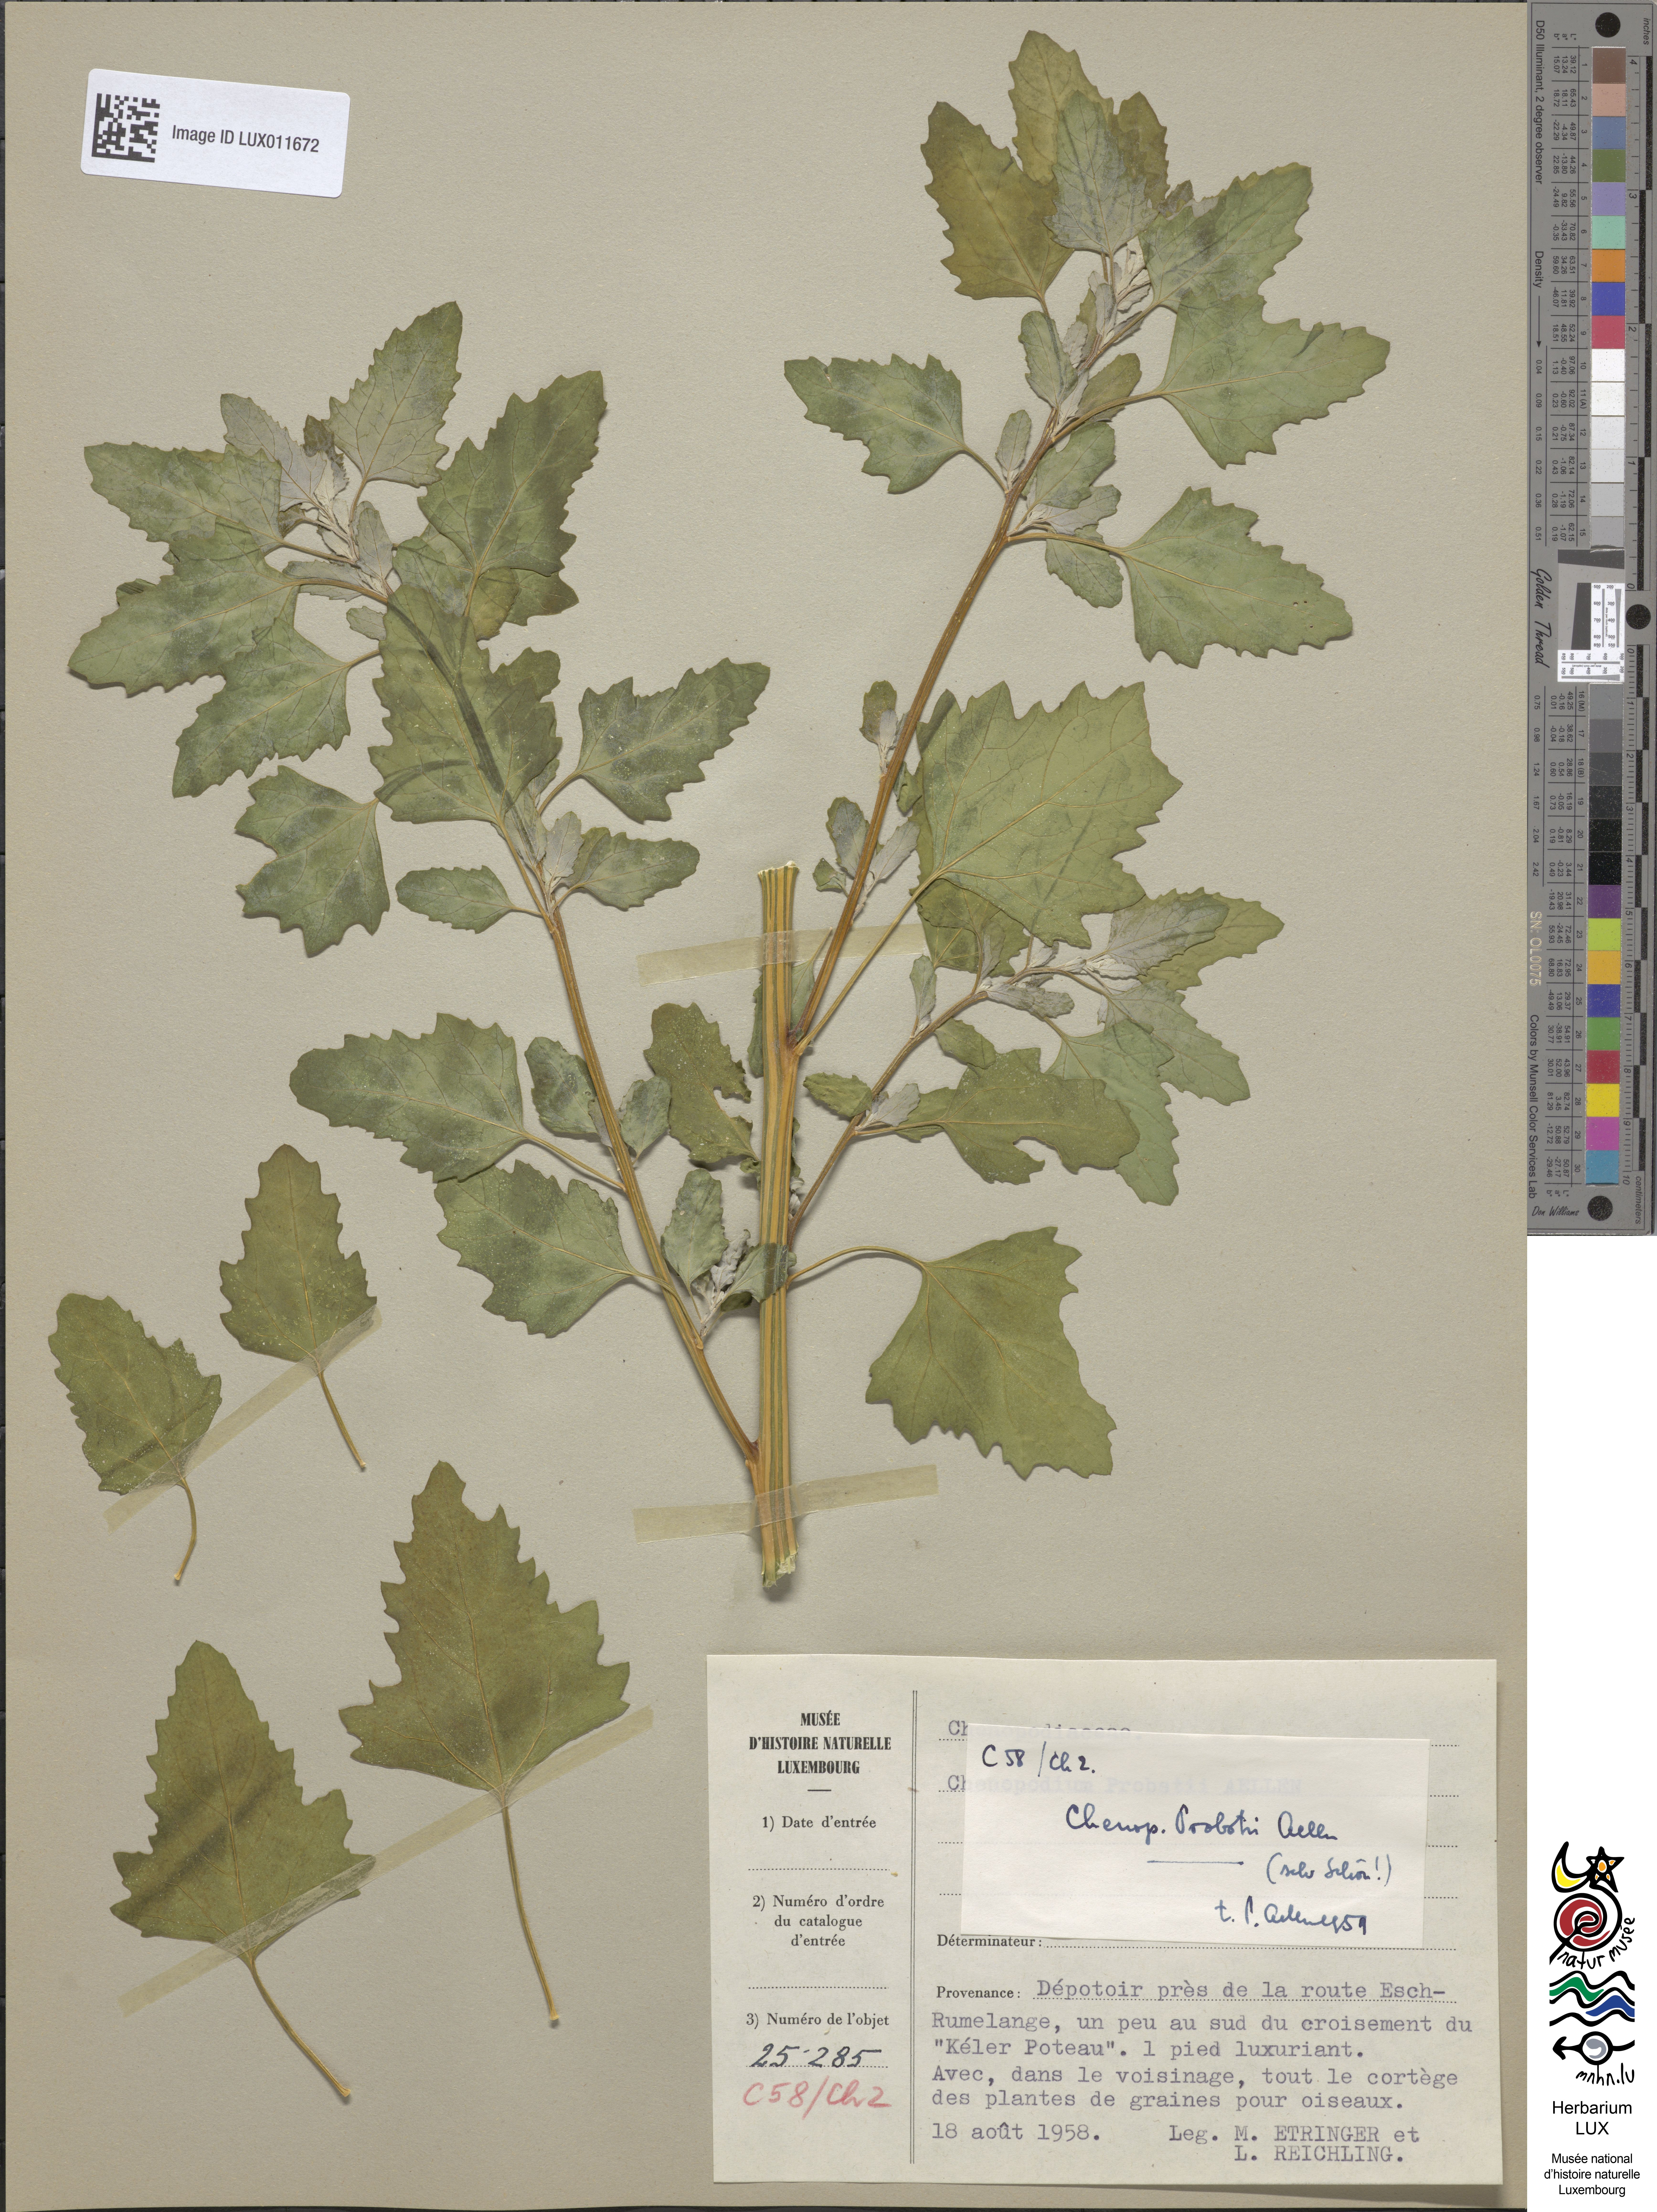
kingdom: Plantae
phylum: Tracheophyta
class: Magnoliopsida
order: Caryophyllales
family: Amaranthaceae
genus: Chenopodium
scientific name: Chenopodium probstii
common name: Probst's goosefoot
